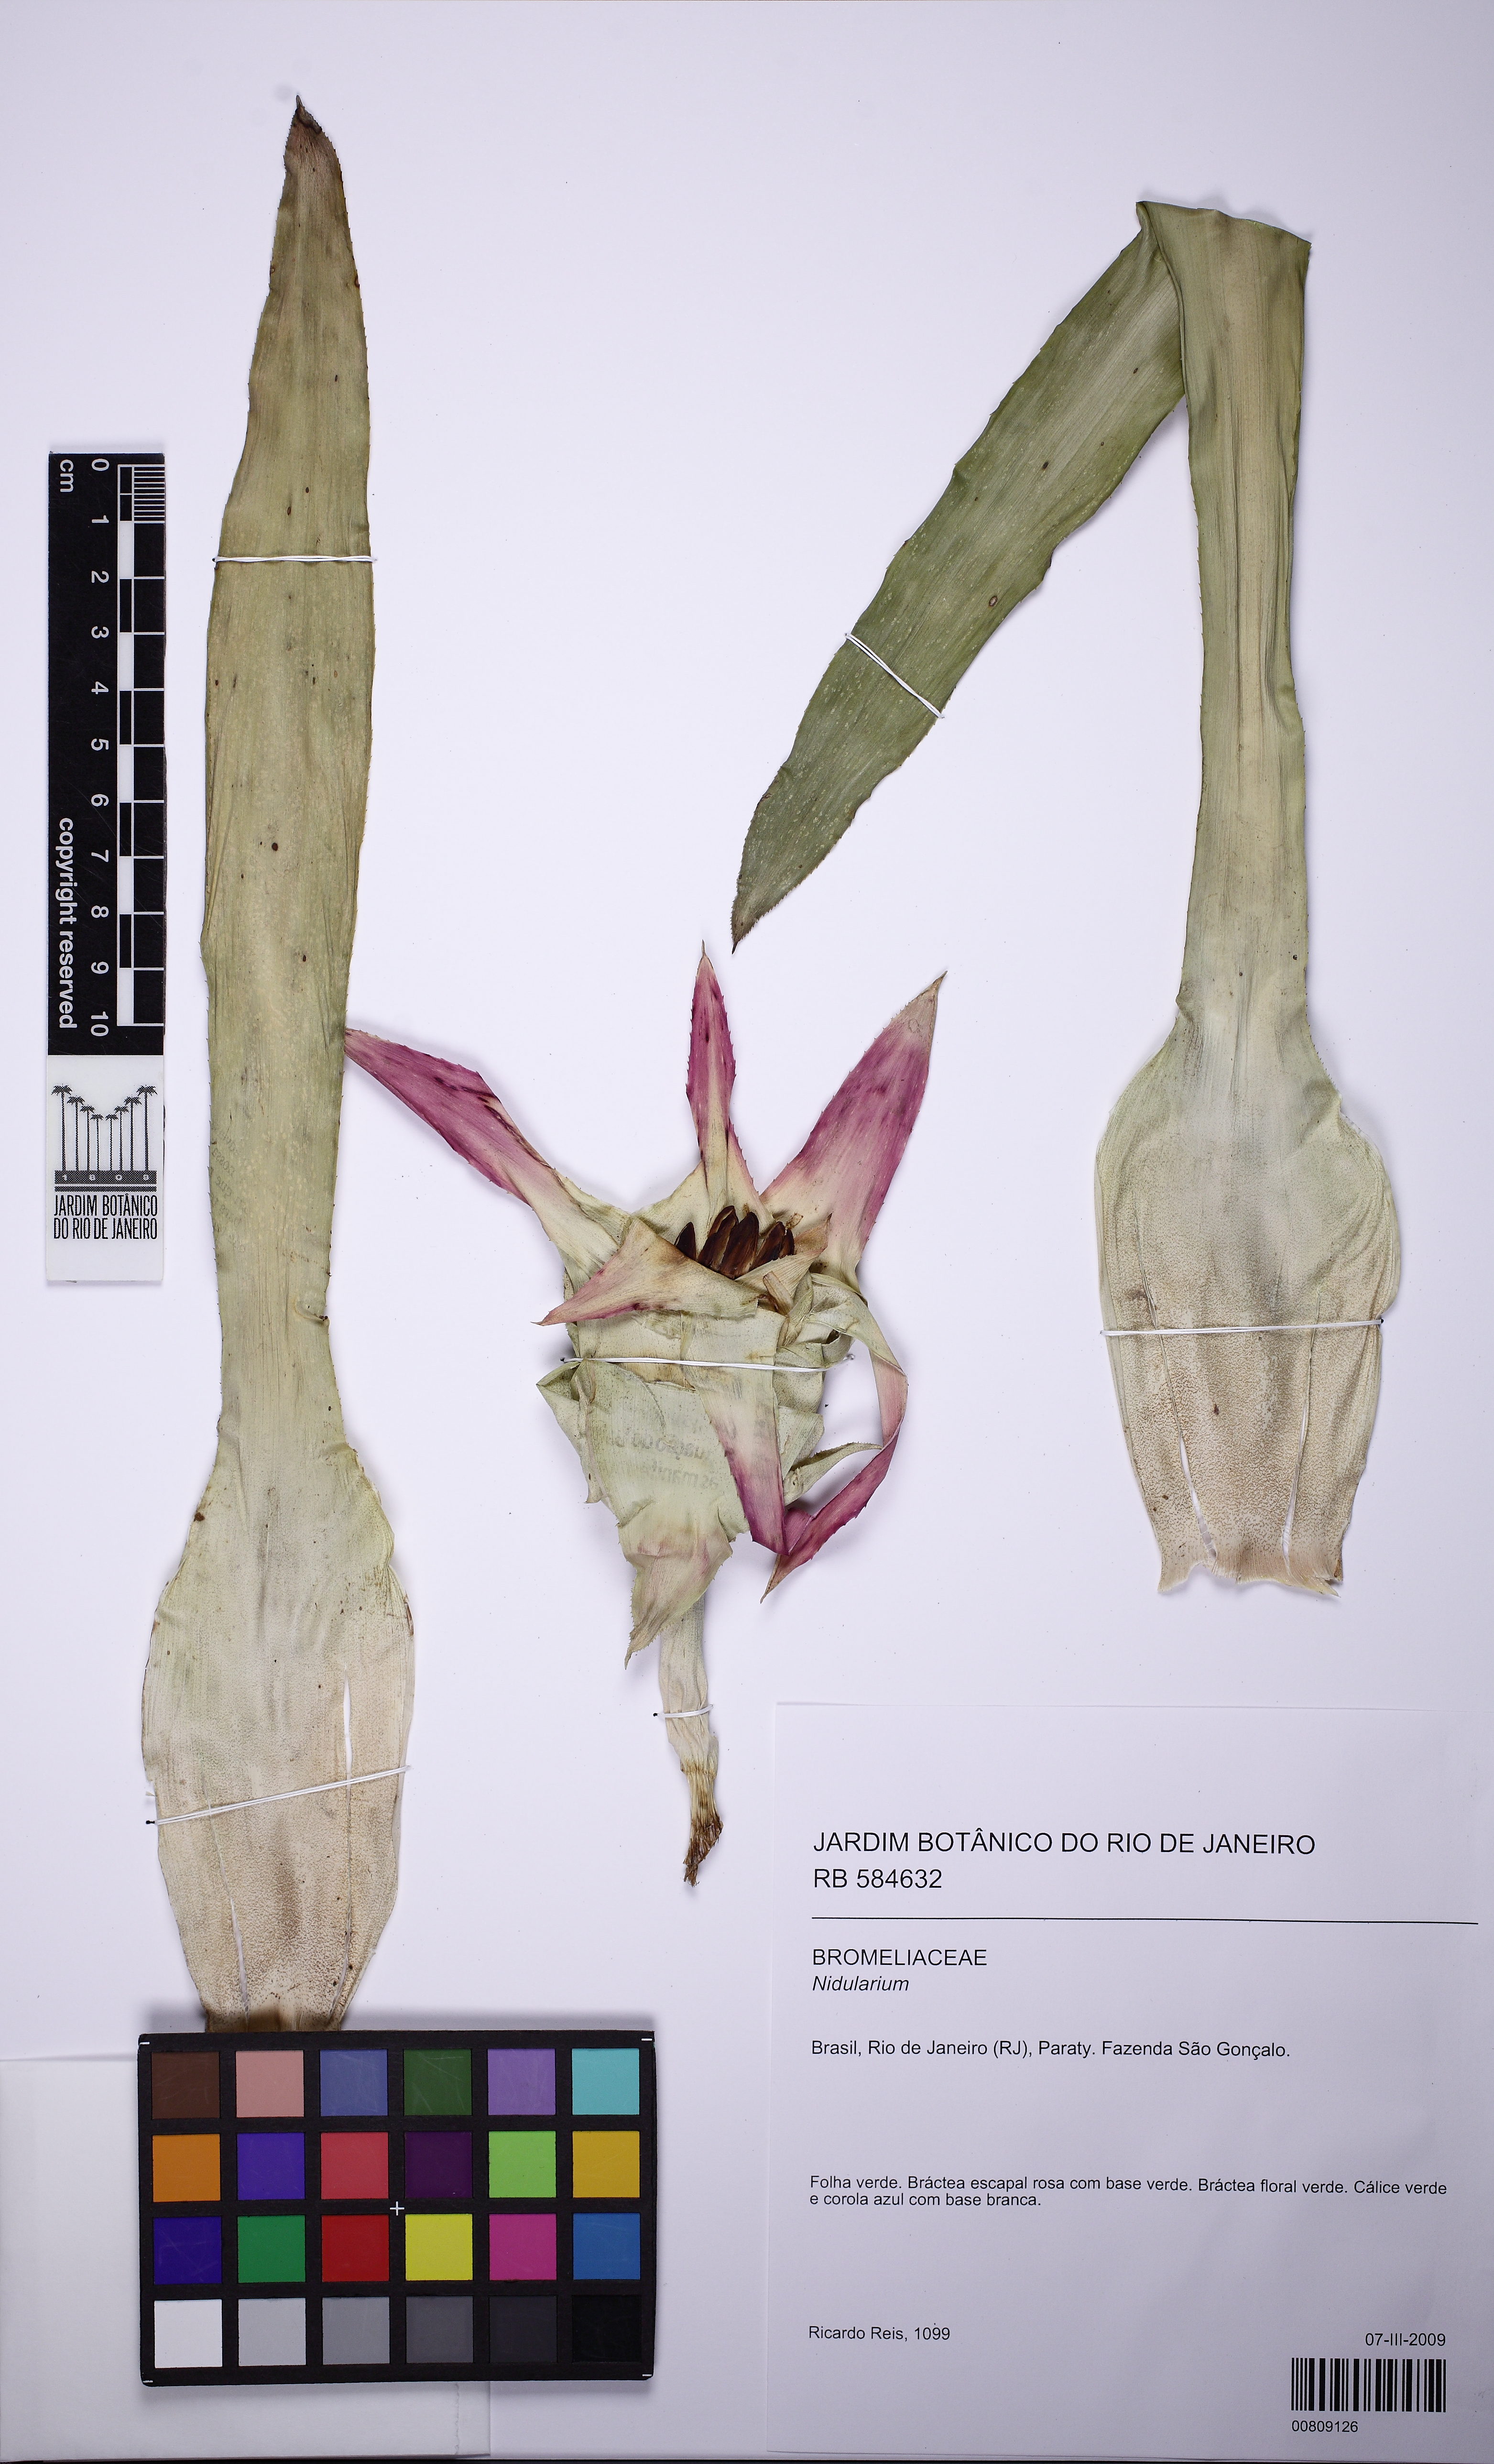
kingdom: Plantae
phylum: Tracheophyta
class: Liliopsida
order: Poales
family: Bromeliaceae
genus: Nidularium
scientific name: Nidularium
